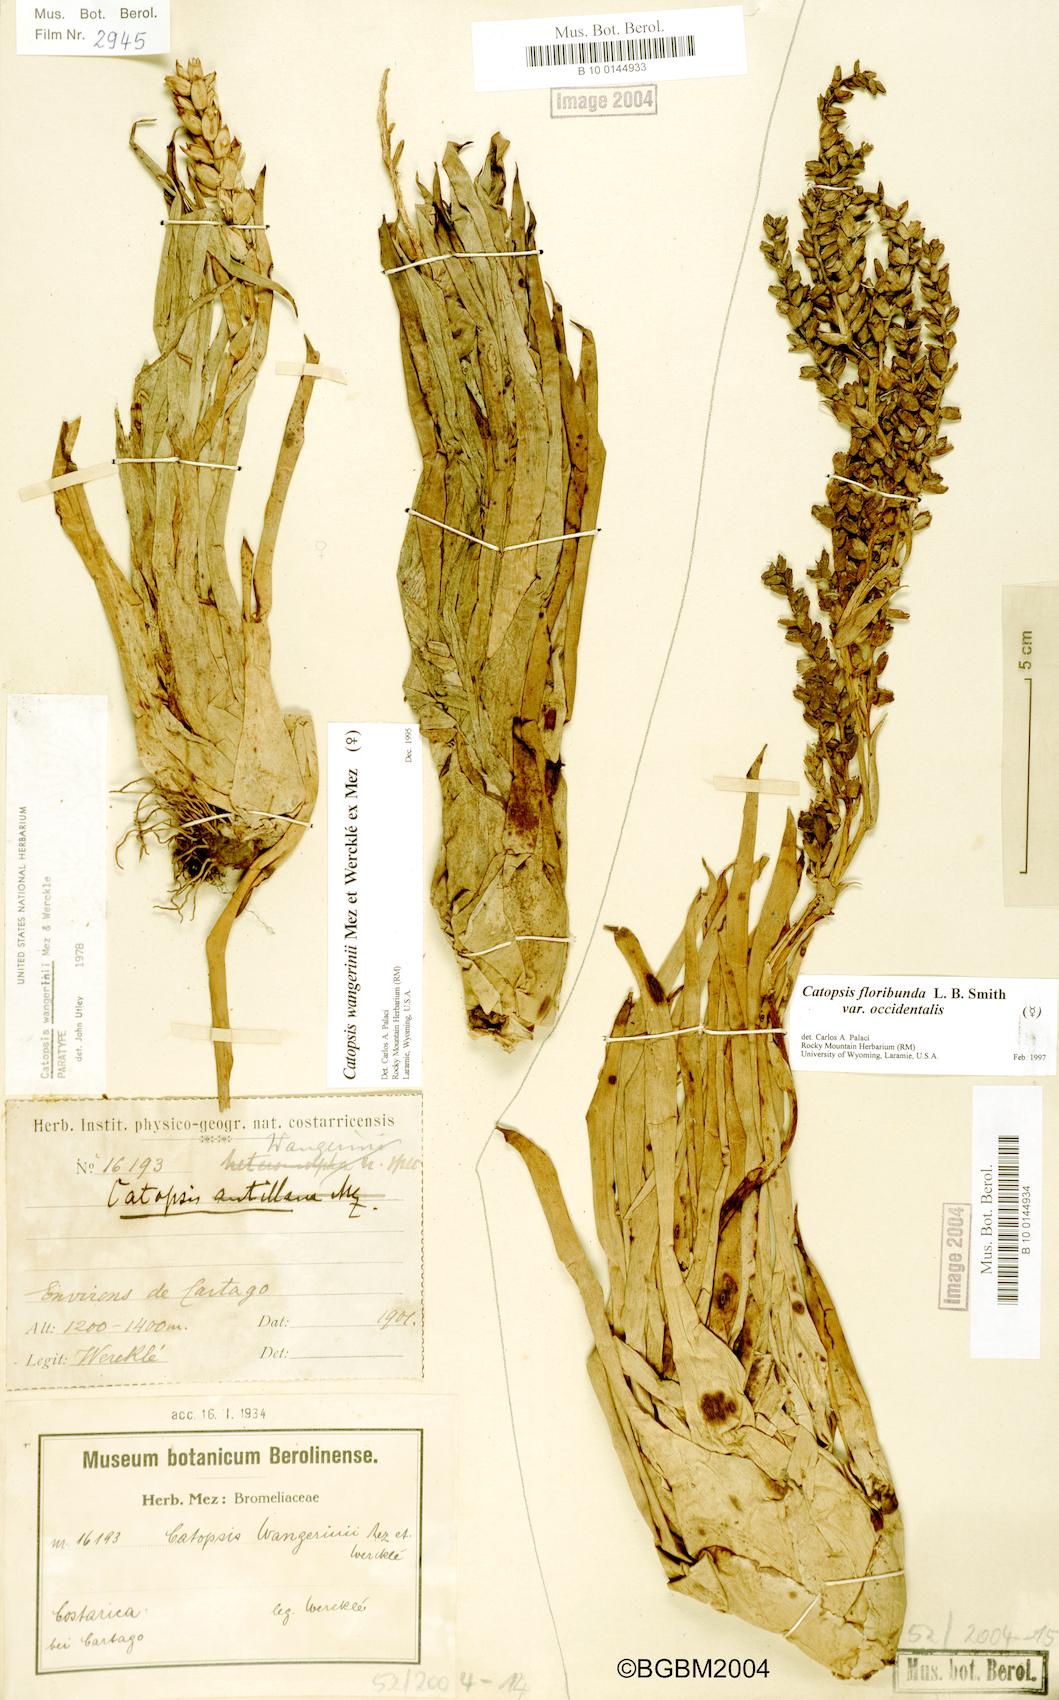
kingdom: Plantae
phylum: Tracheophyta
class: Liliopsida
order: Poales
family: Bromeliaceae
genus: Catopsis
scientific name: Catopsis floribunda
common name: Florida strap airplant
